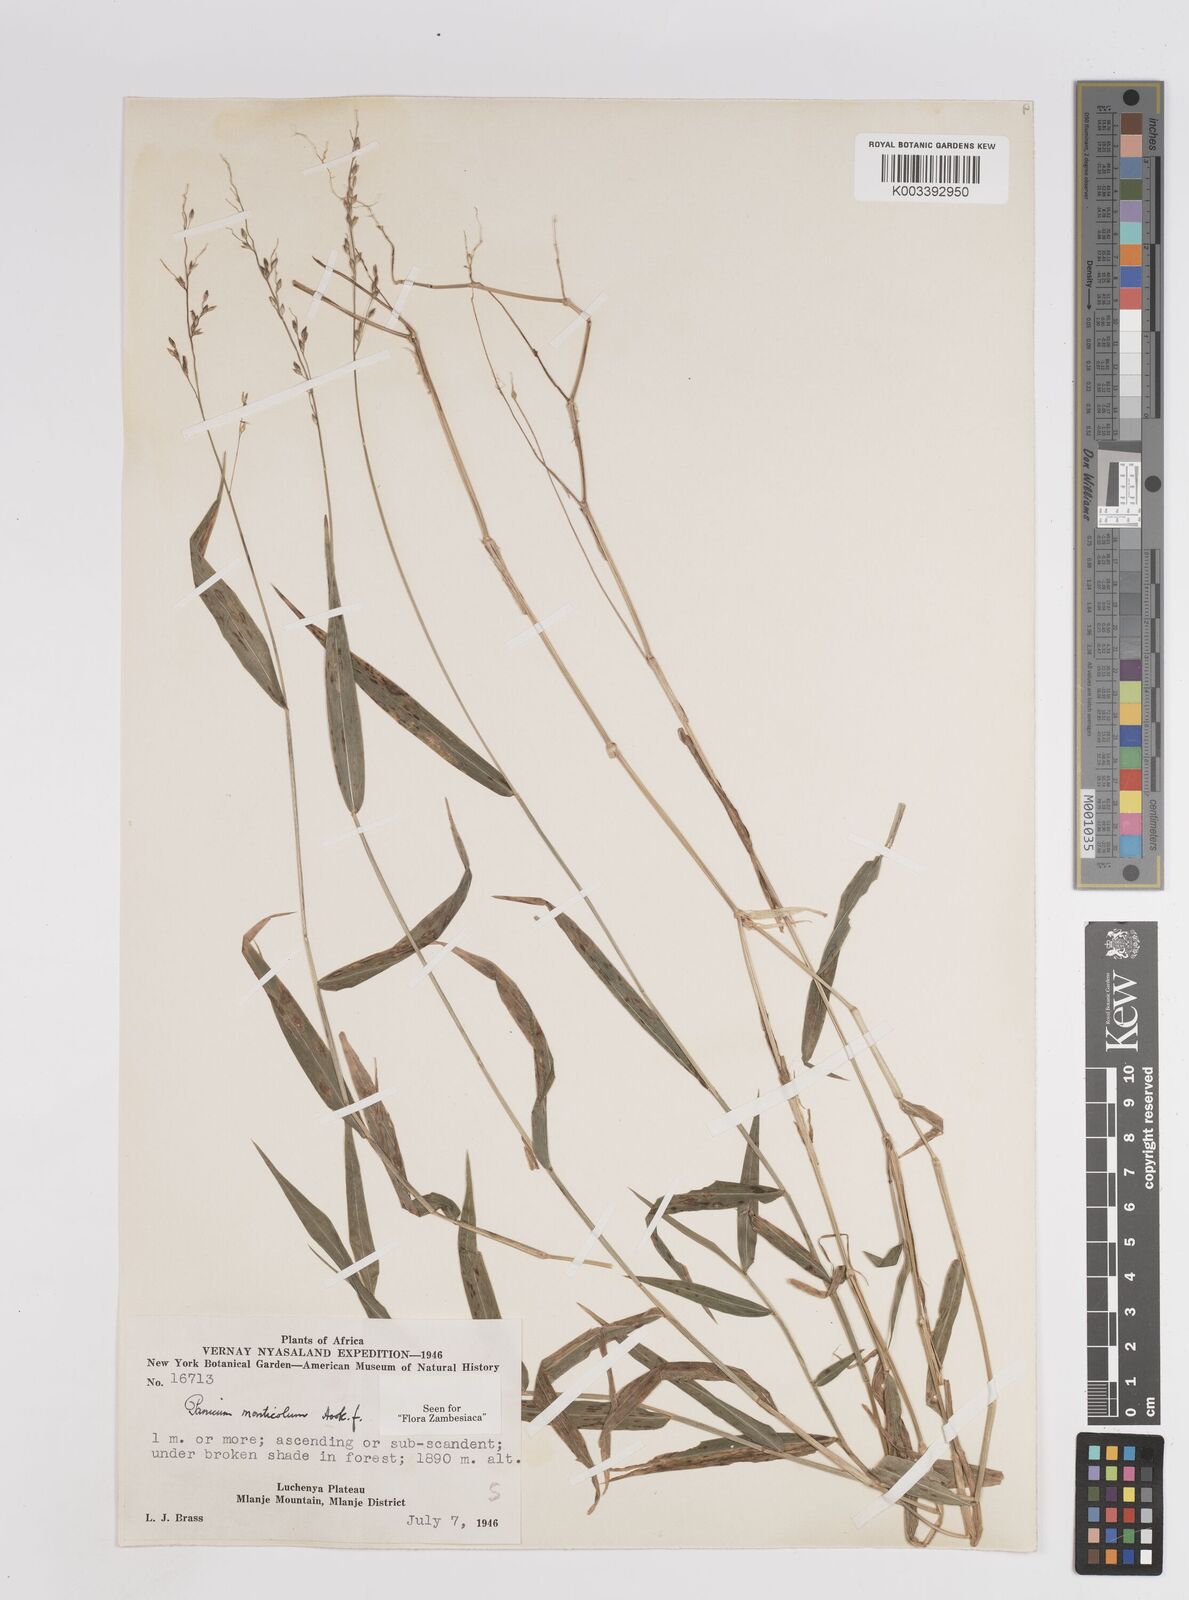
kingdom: Plantae
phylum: Tracheophyta
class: Liliopsida
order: Poales
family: Poaceae
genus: Panicum
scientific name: Panicum monticola
